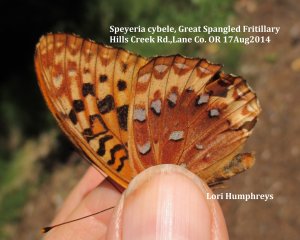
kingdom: Animalia
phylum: Arthropoda
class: Insecta
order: Lepidoptera
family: Nymphalidae
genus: Speyeria
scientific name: Speyeria cybele
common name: Great Spangled Fritillary
